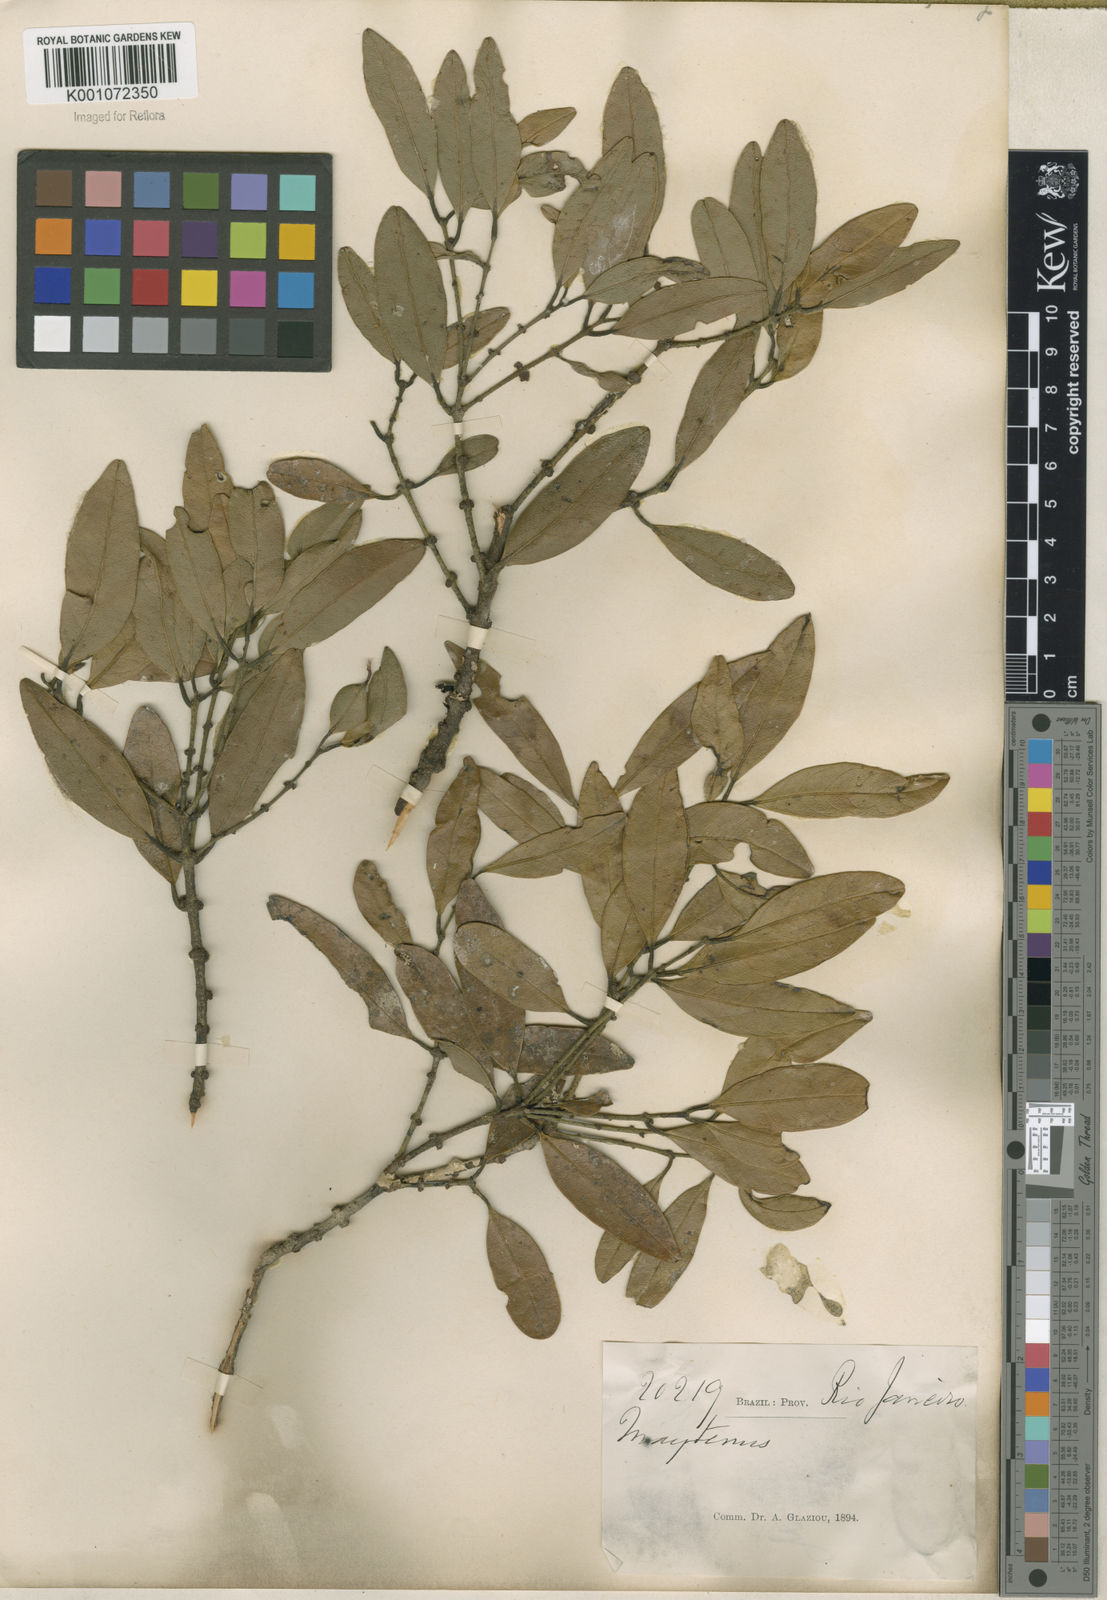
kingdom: Plantae
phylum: Tracheophyta
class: Magnoliopsida
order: Celastrales
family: Celastraceae
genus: Maytenus
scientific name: Maytenus
